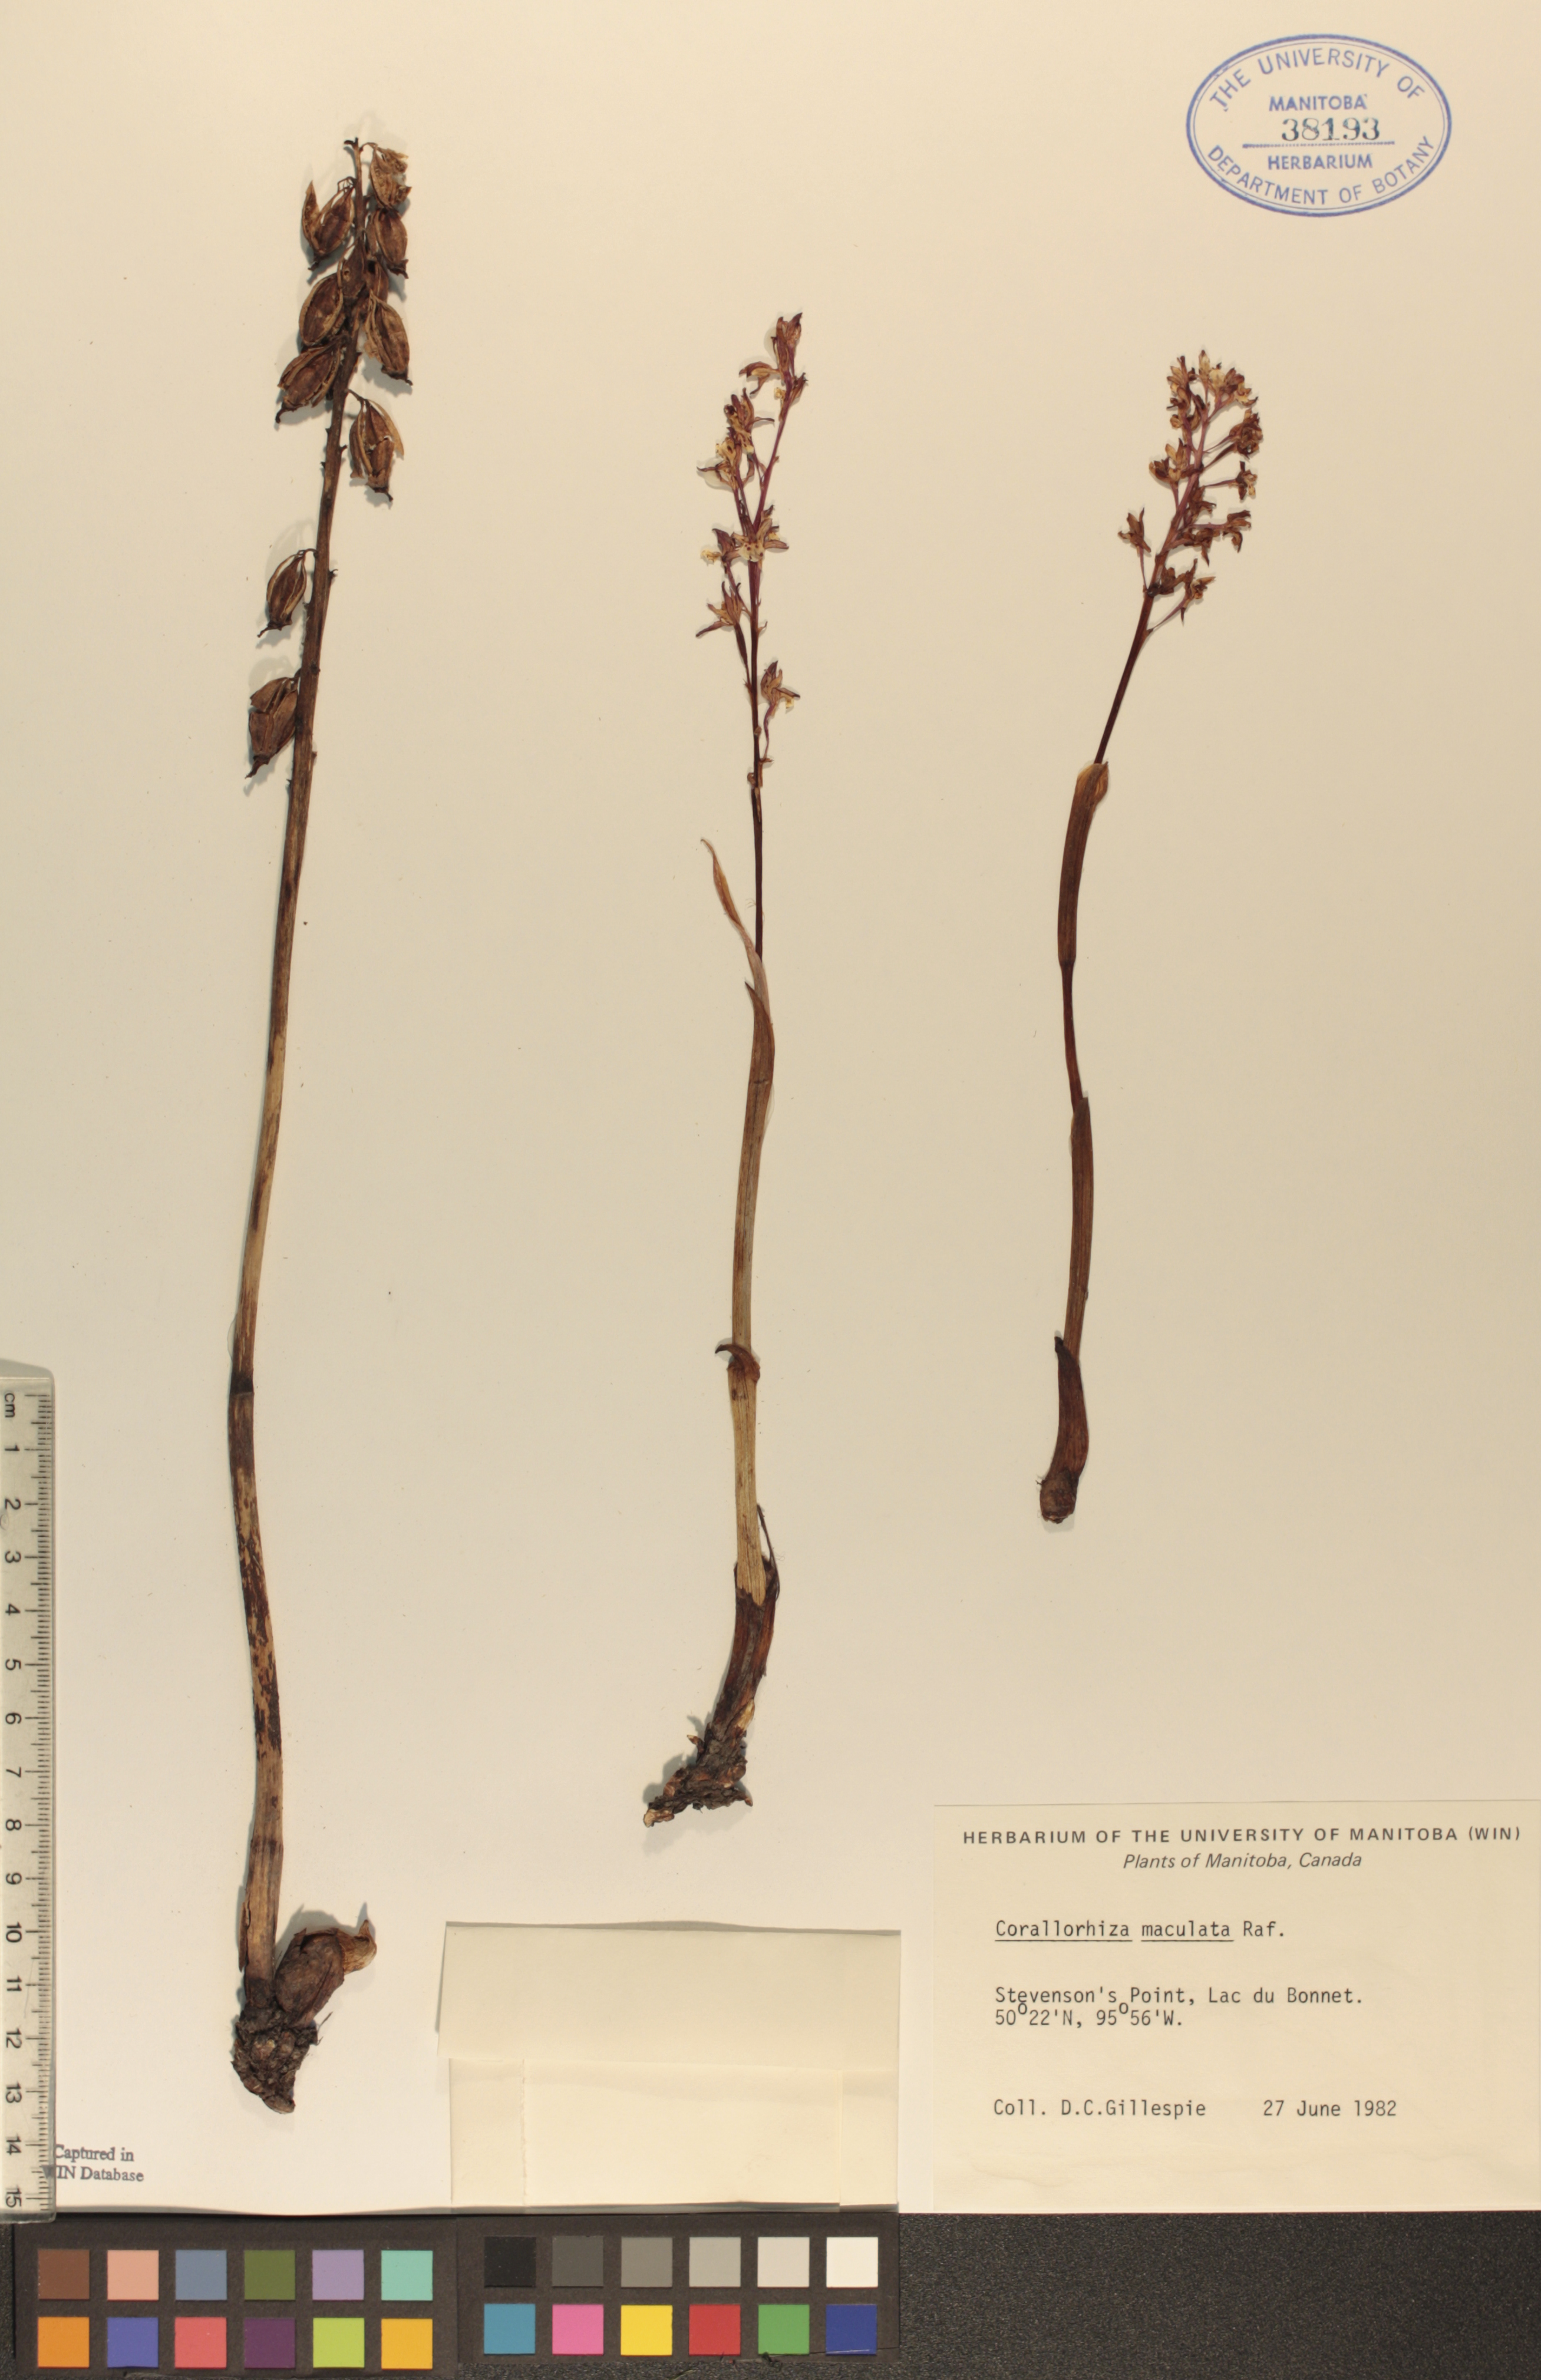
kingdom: Plantae
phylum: Tracheophyta
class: Liliopsida
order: Asparagales
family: Orchidaceae
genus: Corallorhiza
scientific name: Corallorhiza maculata
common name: Spotted coralroot
